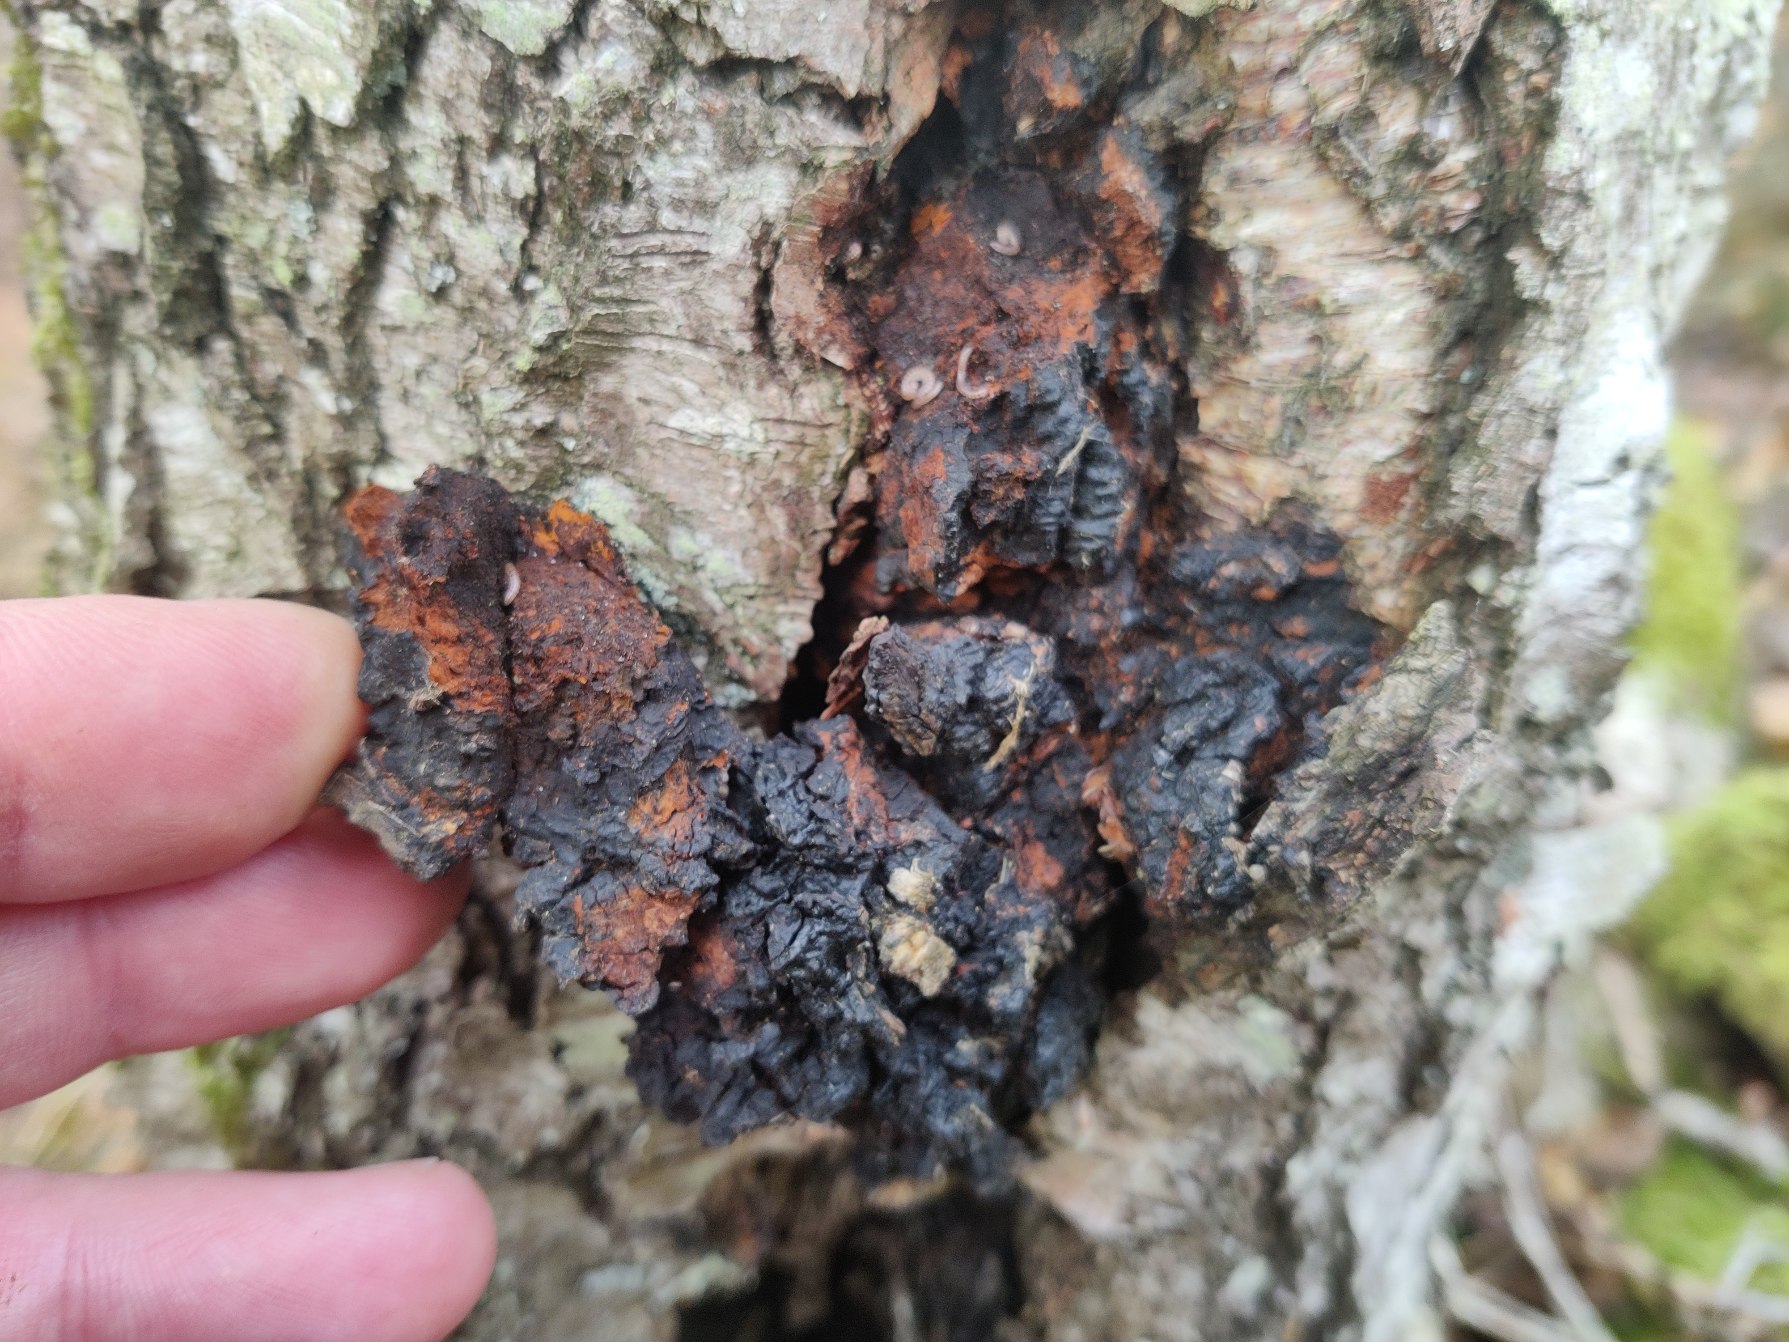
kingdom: Fungi
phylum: Basidiomycota
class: Agaricomycetes
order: Hymenochaetales
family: Hymenochaetaceae
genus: Inonotus
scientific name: Inonotus obliquus
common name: Birke-spejlporesvamp
